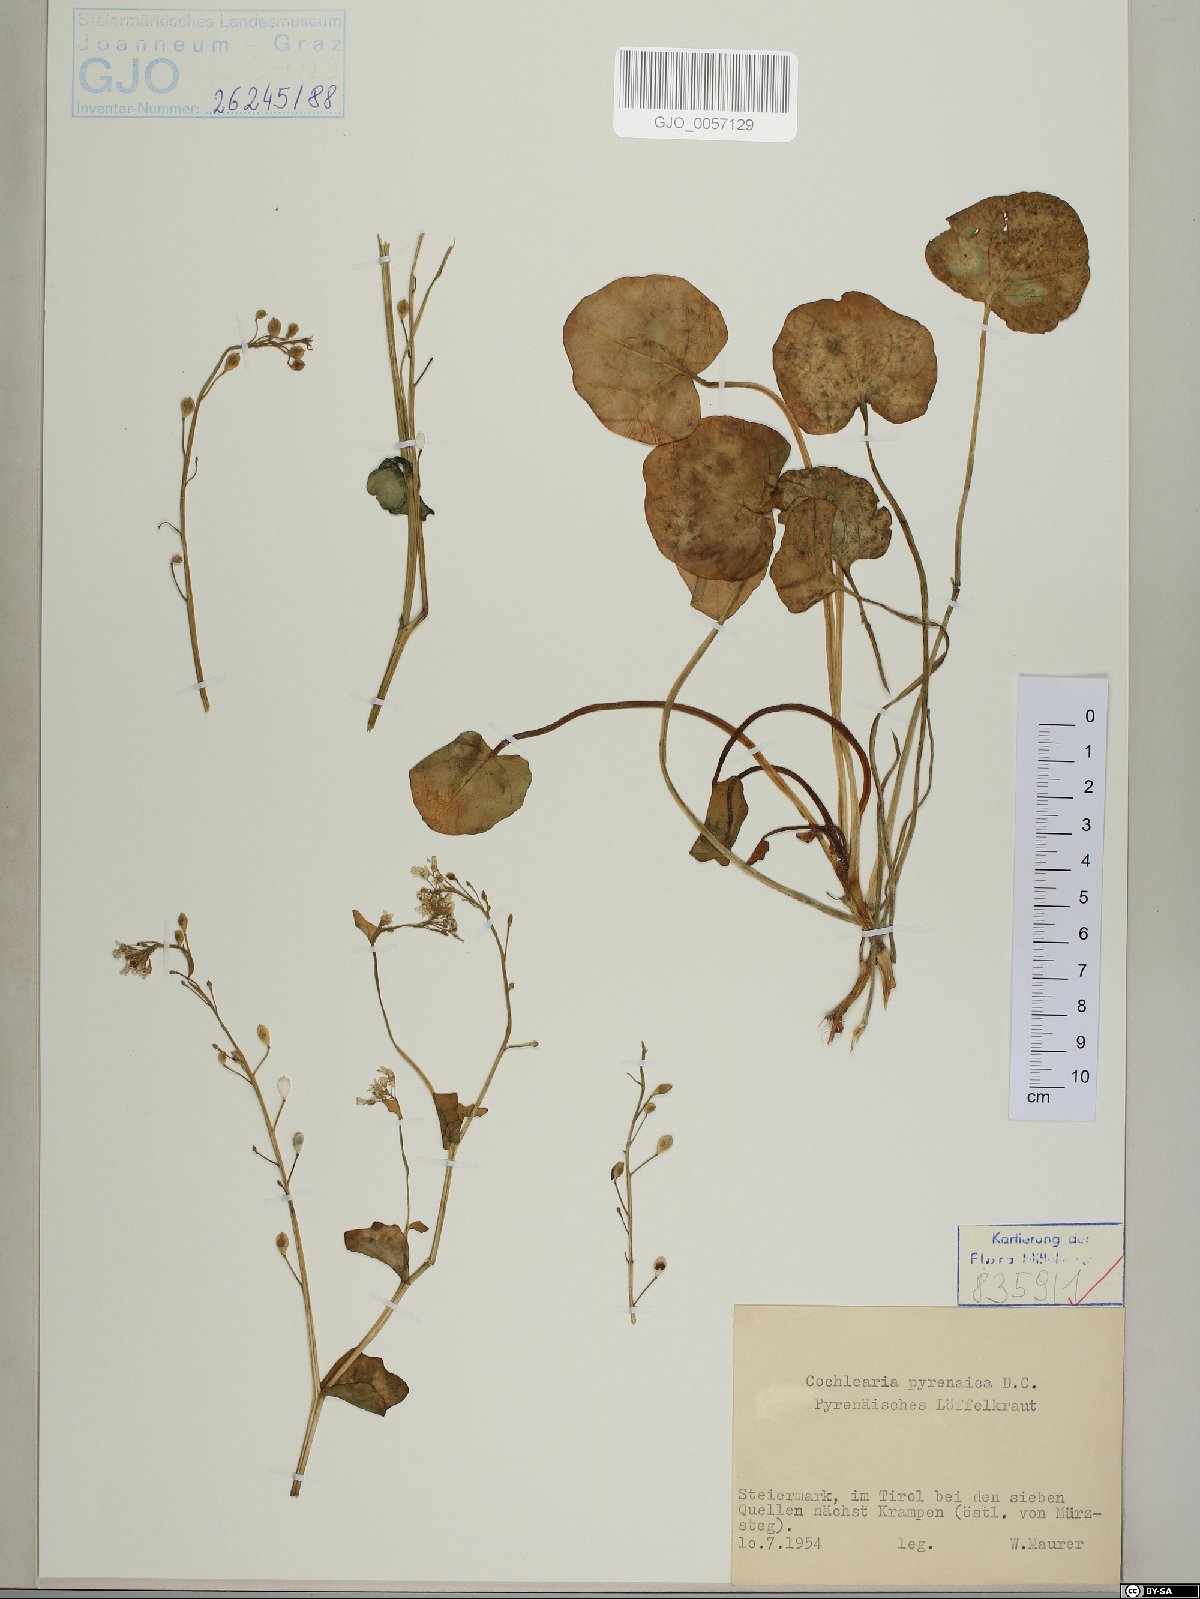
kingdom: Plantae
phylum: Tracheophyta
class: Magnoliopsida
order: Brassicales
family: Brassicaceae
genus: Cochlearia
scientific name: Cochlearia pyrenaica
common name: Upland scurvy-grass
